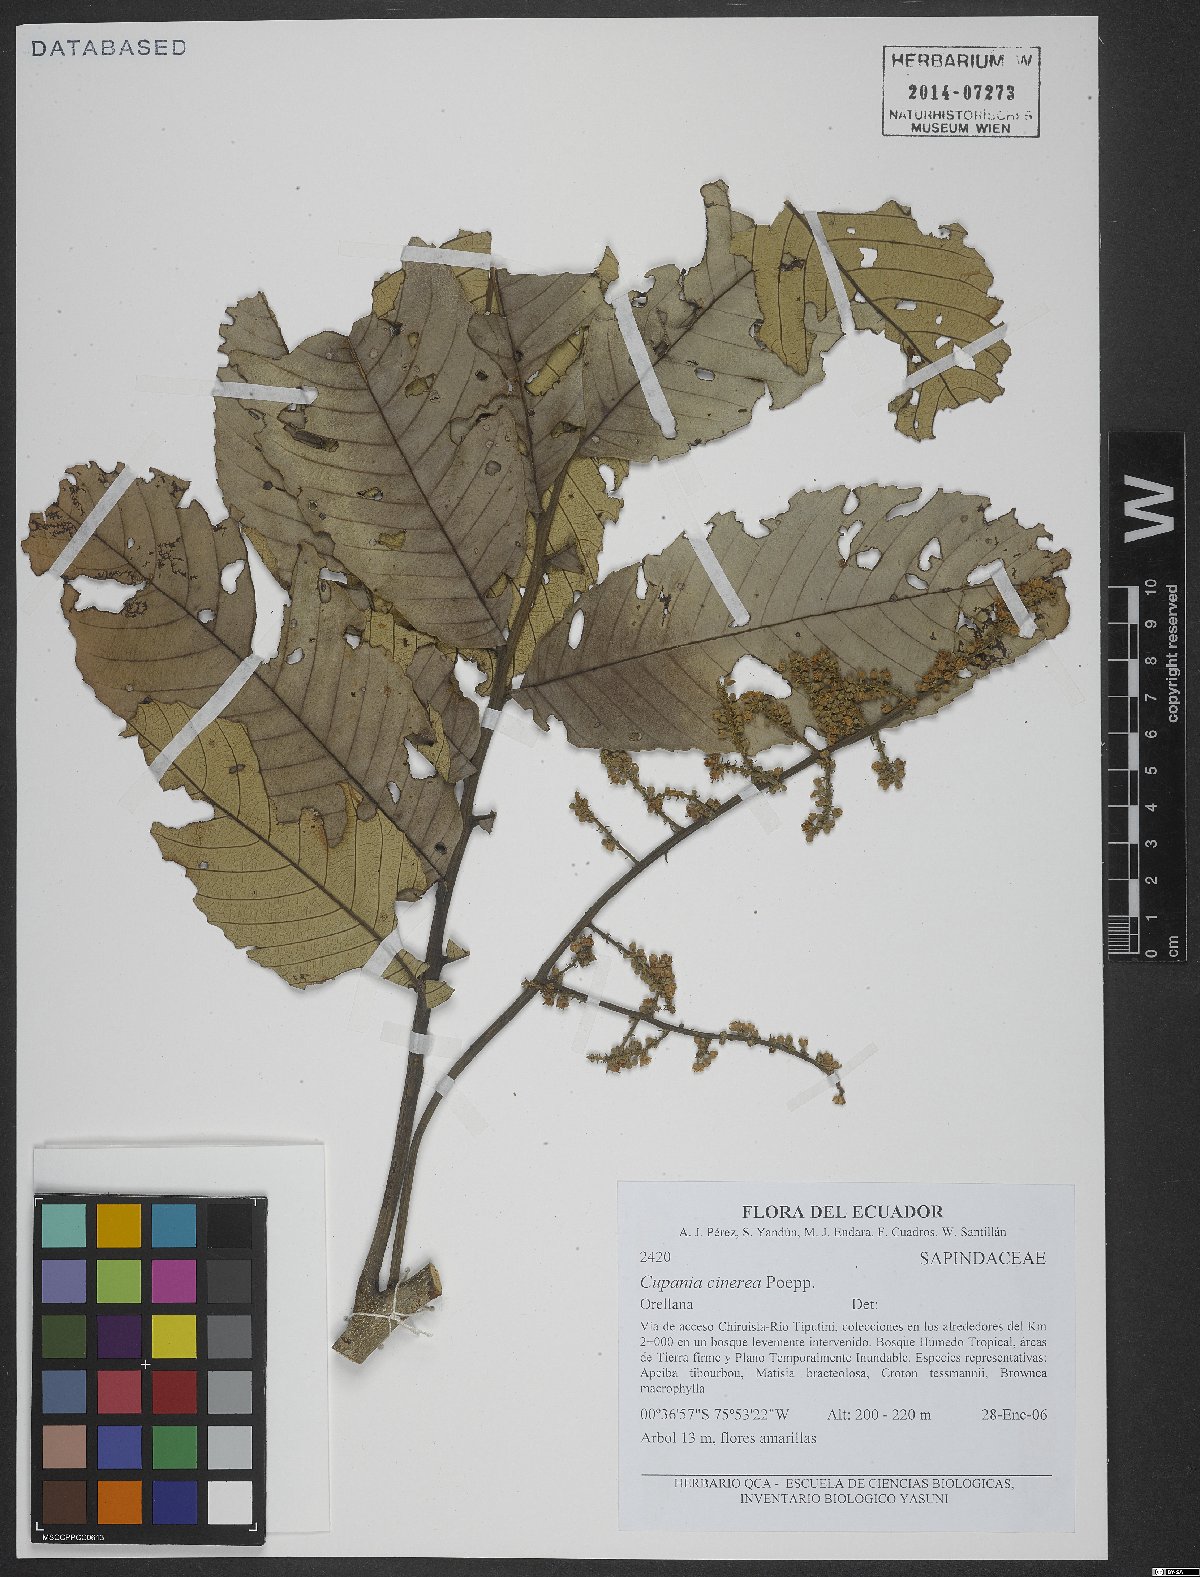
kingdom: Plantae
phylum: Tracheophyta
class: Magnoliopsida
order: Sapindales
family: Sapindaceae
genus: Cupania
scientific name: Cupania cinerea
